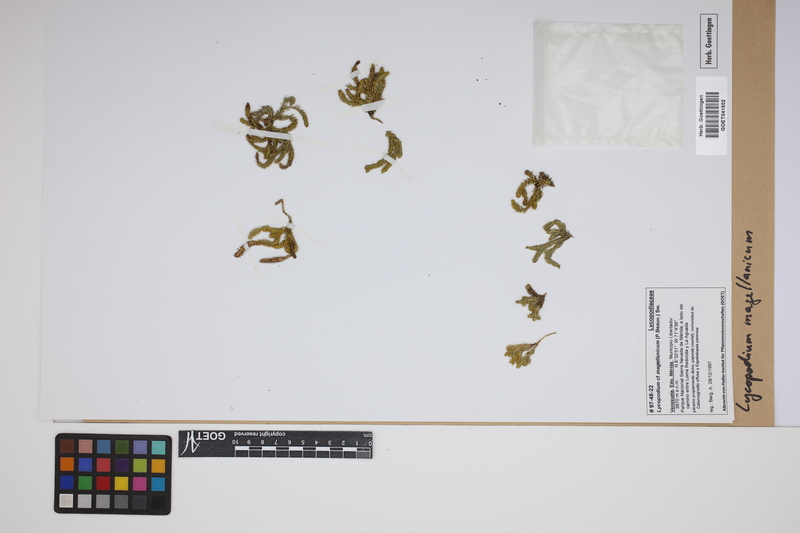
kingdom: Plantae
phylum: Tracheophyta
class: Lycopodiopsida
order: Lycopodiales
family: Lycopodiaceae
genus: Austrolycopodium
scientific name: Austrolycopodium magellanicum
